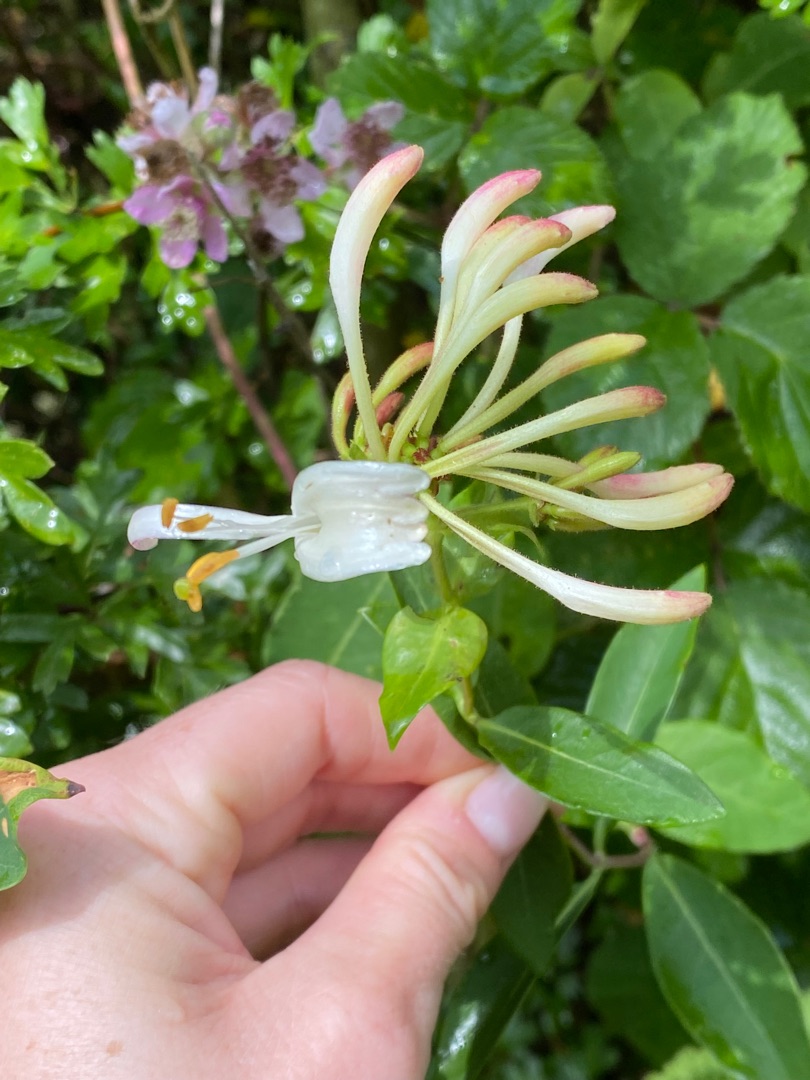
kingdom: Plantae
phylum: Tracheophyta
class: Magnoliopsida
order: Dipsacales
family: Caprifoliaceae
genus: Lonicera
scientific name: Lonicera periclymenum
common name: Almindelig gedeblad
